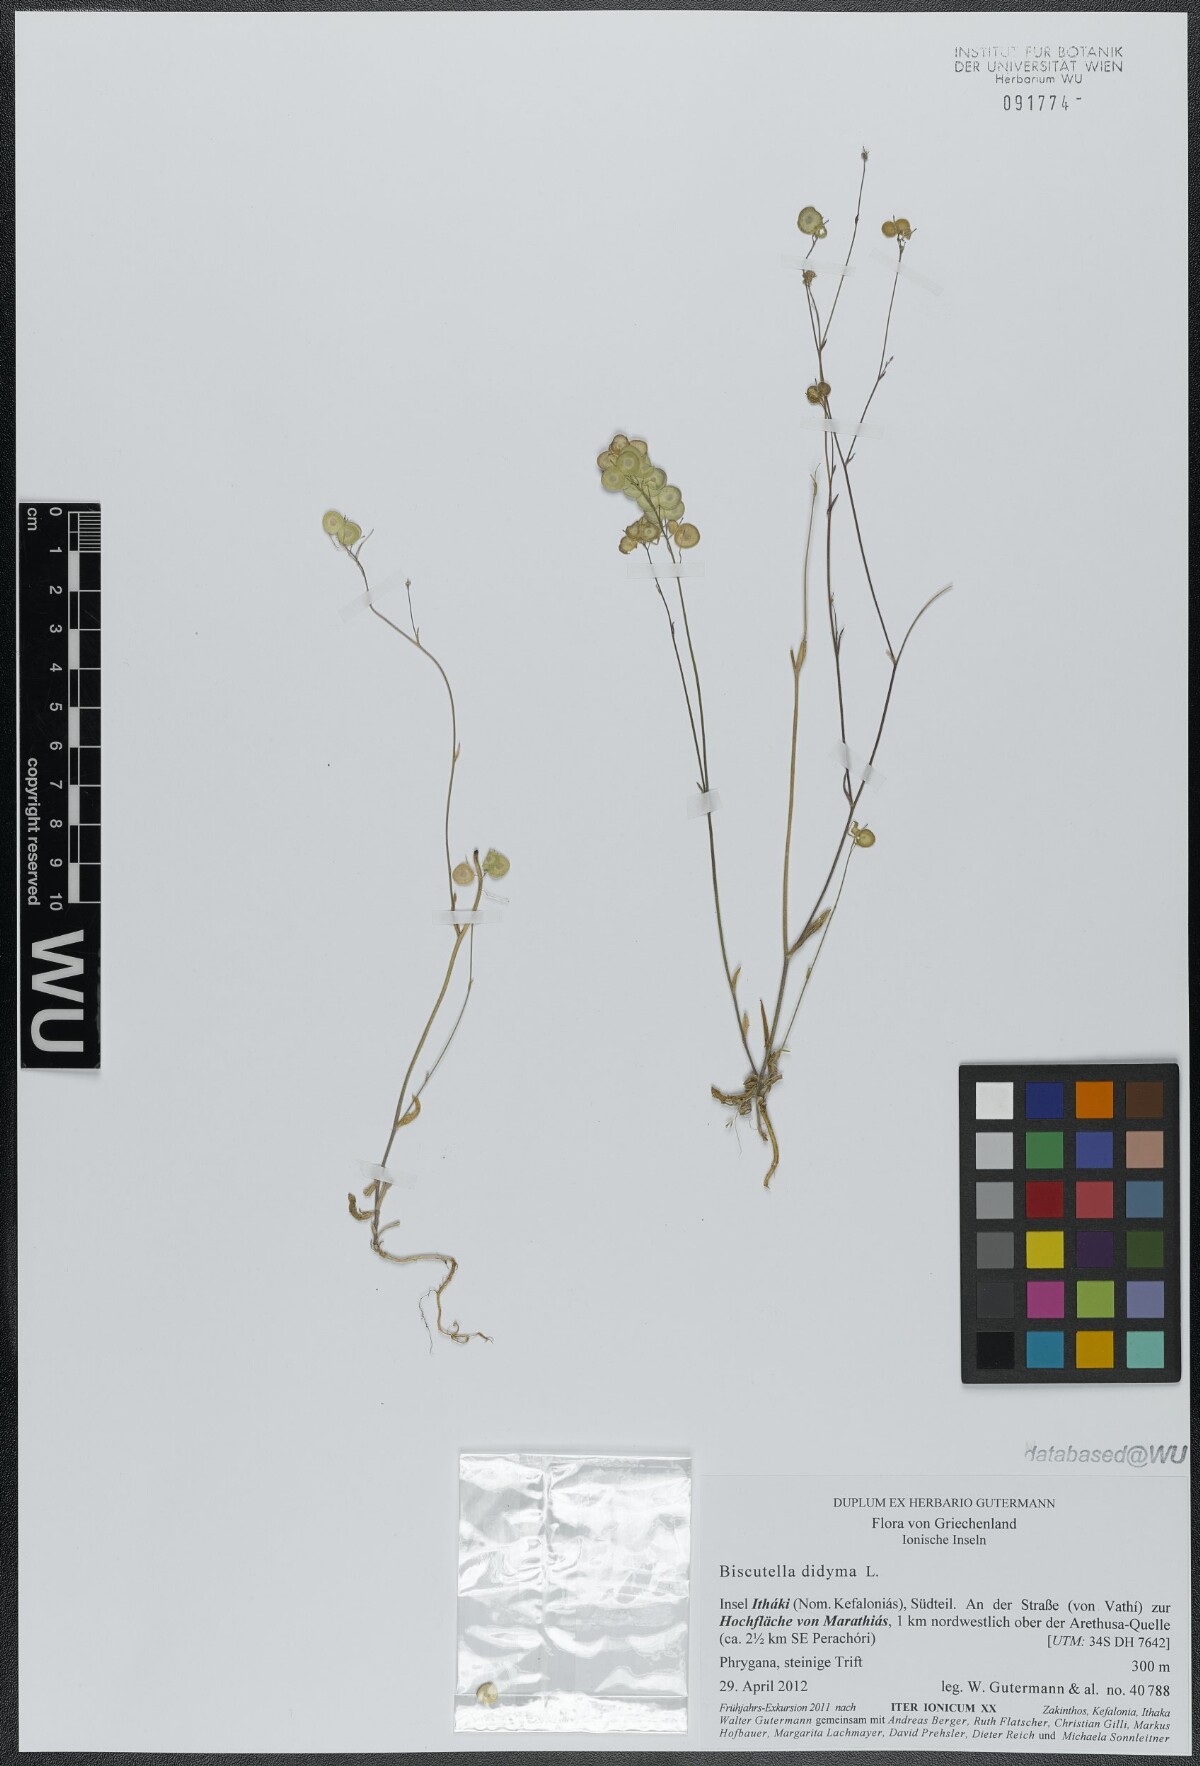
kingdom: Plantae
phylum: Tracheophyta
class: Magnoliopsida
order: Brassicales
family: Brassicaceae
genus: Biscutella
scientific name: Biscutella didyma
